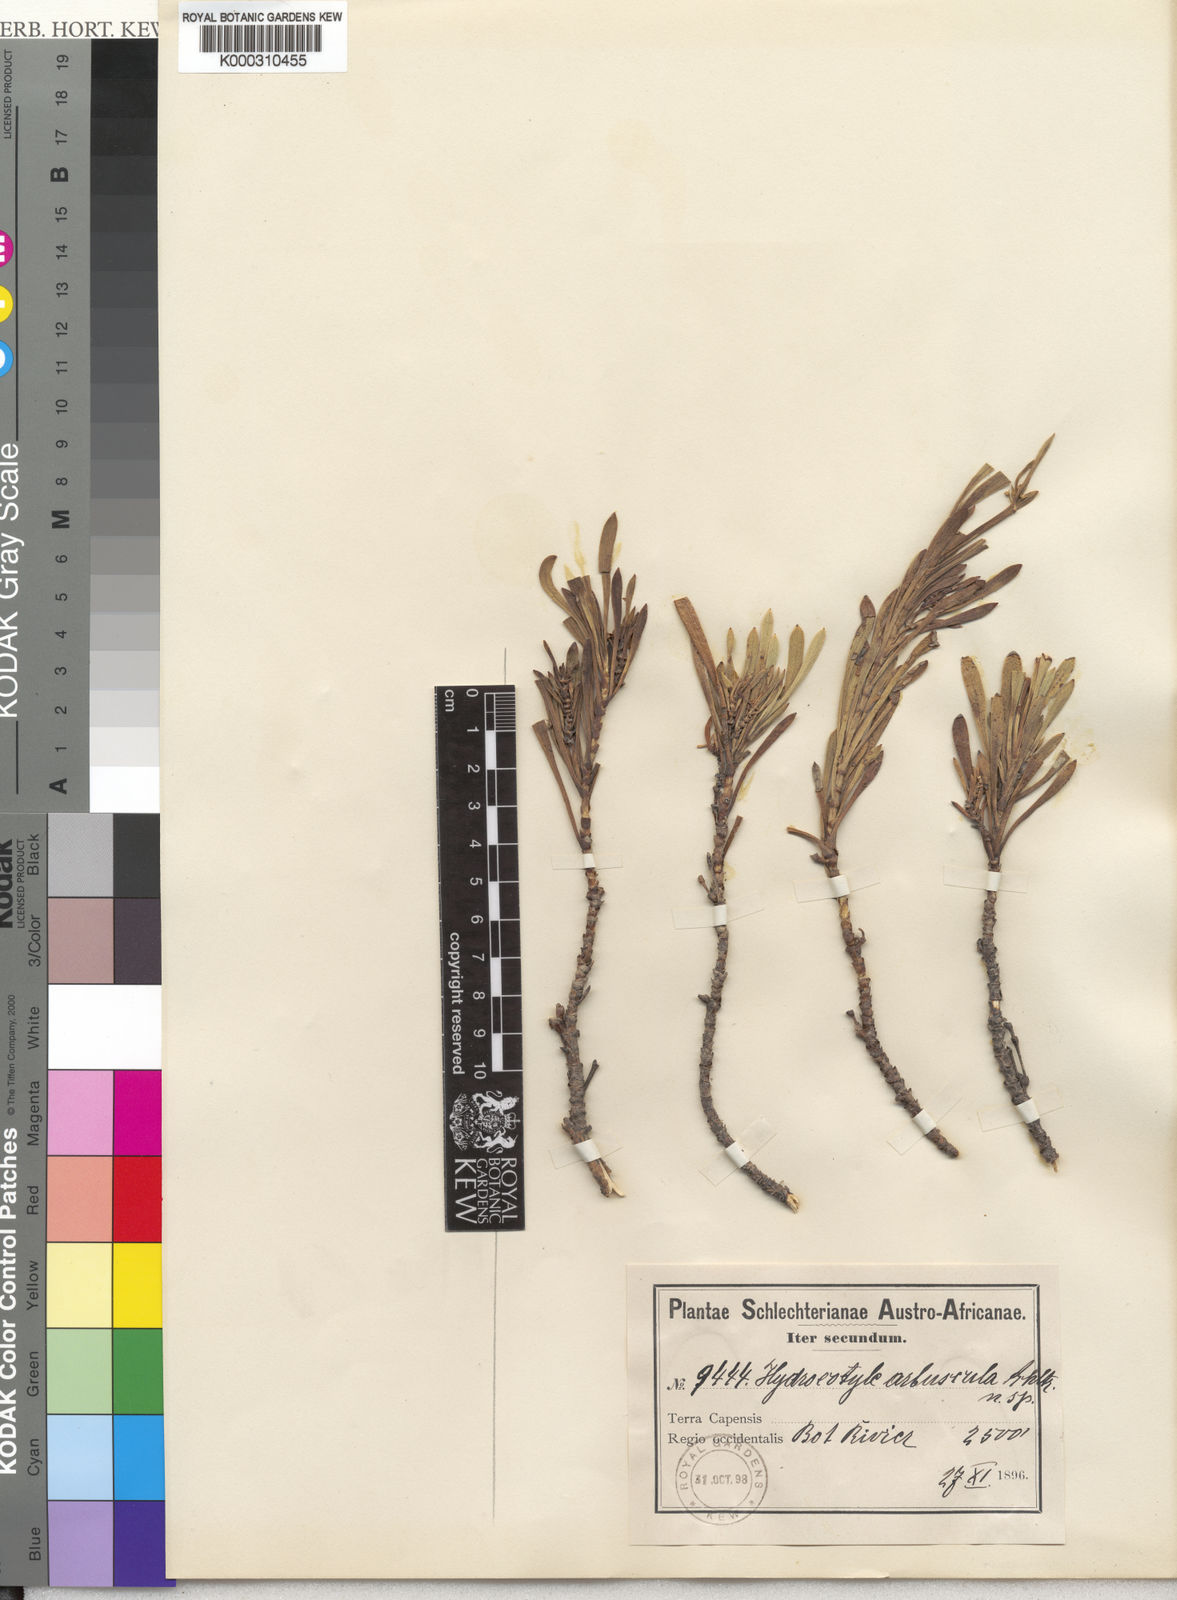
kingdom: Plantae
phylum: Tracheophyta
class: Magnoliopsida
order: Apiales
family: Apiaceae
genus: Centella
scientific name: Centella
